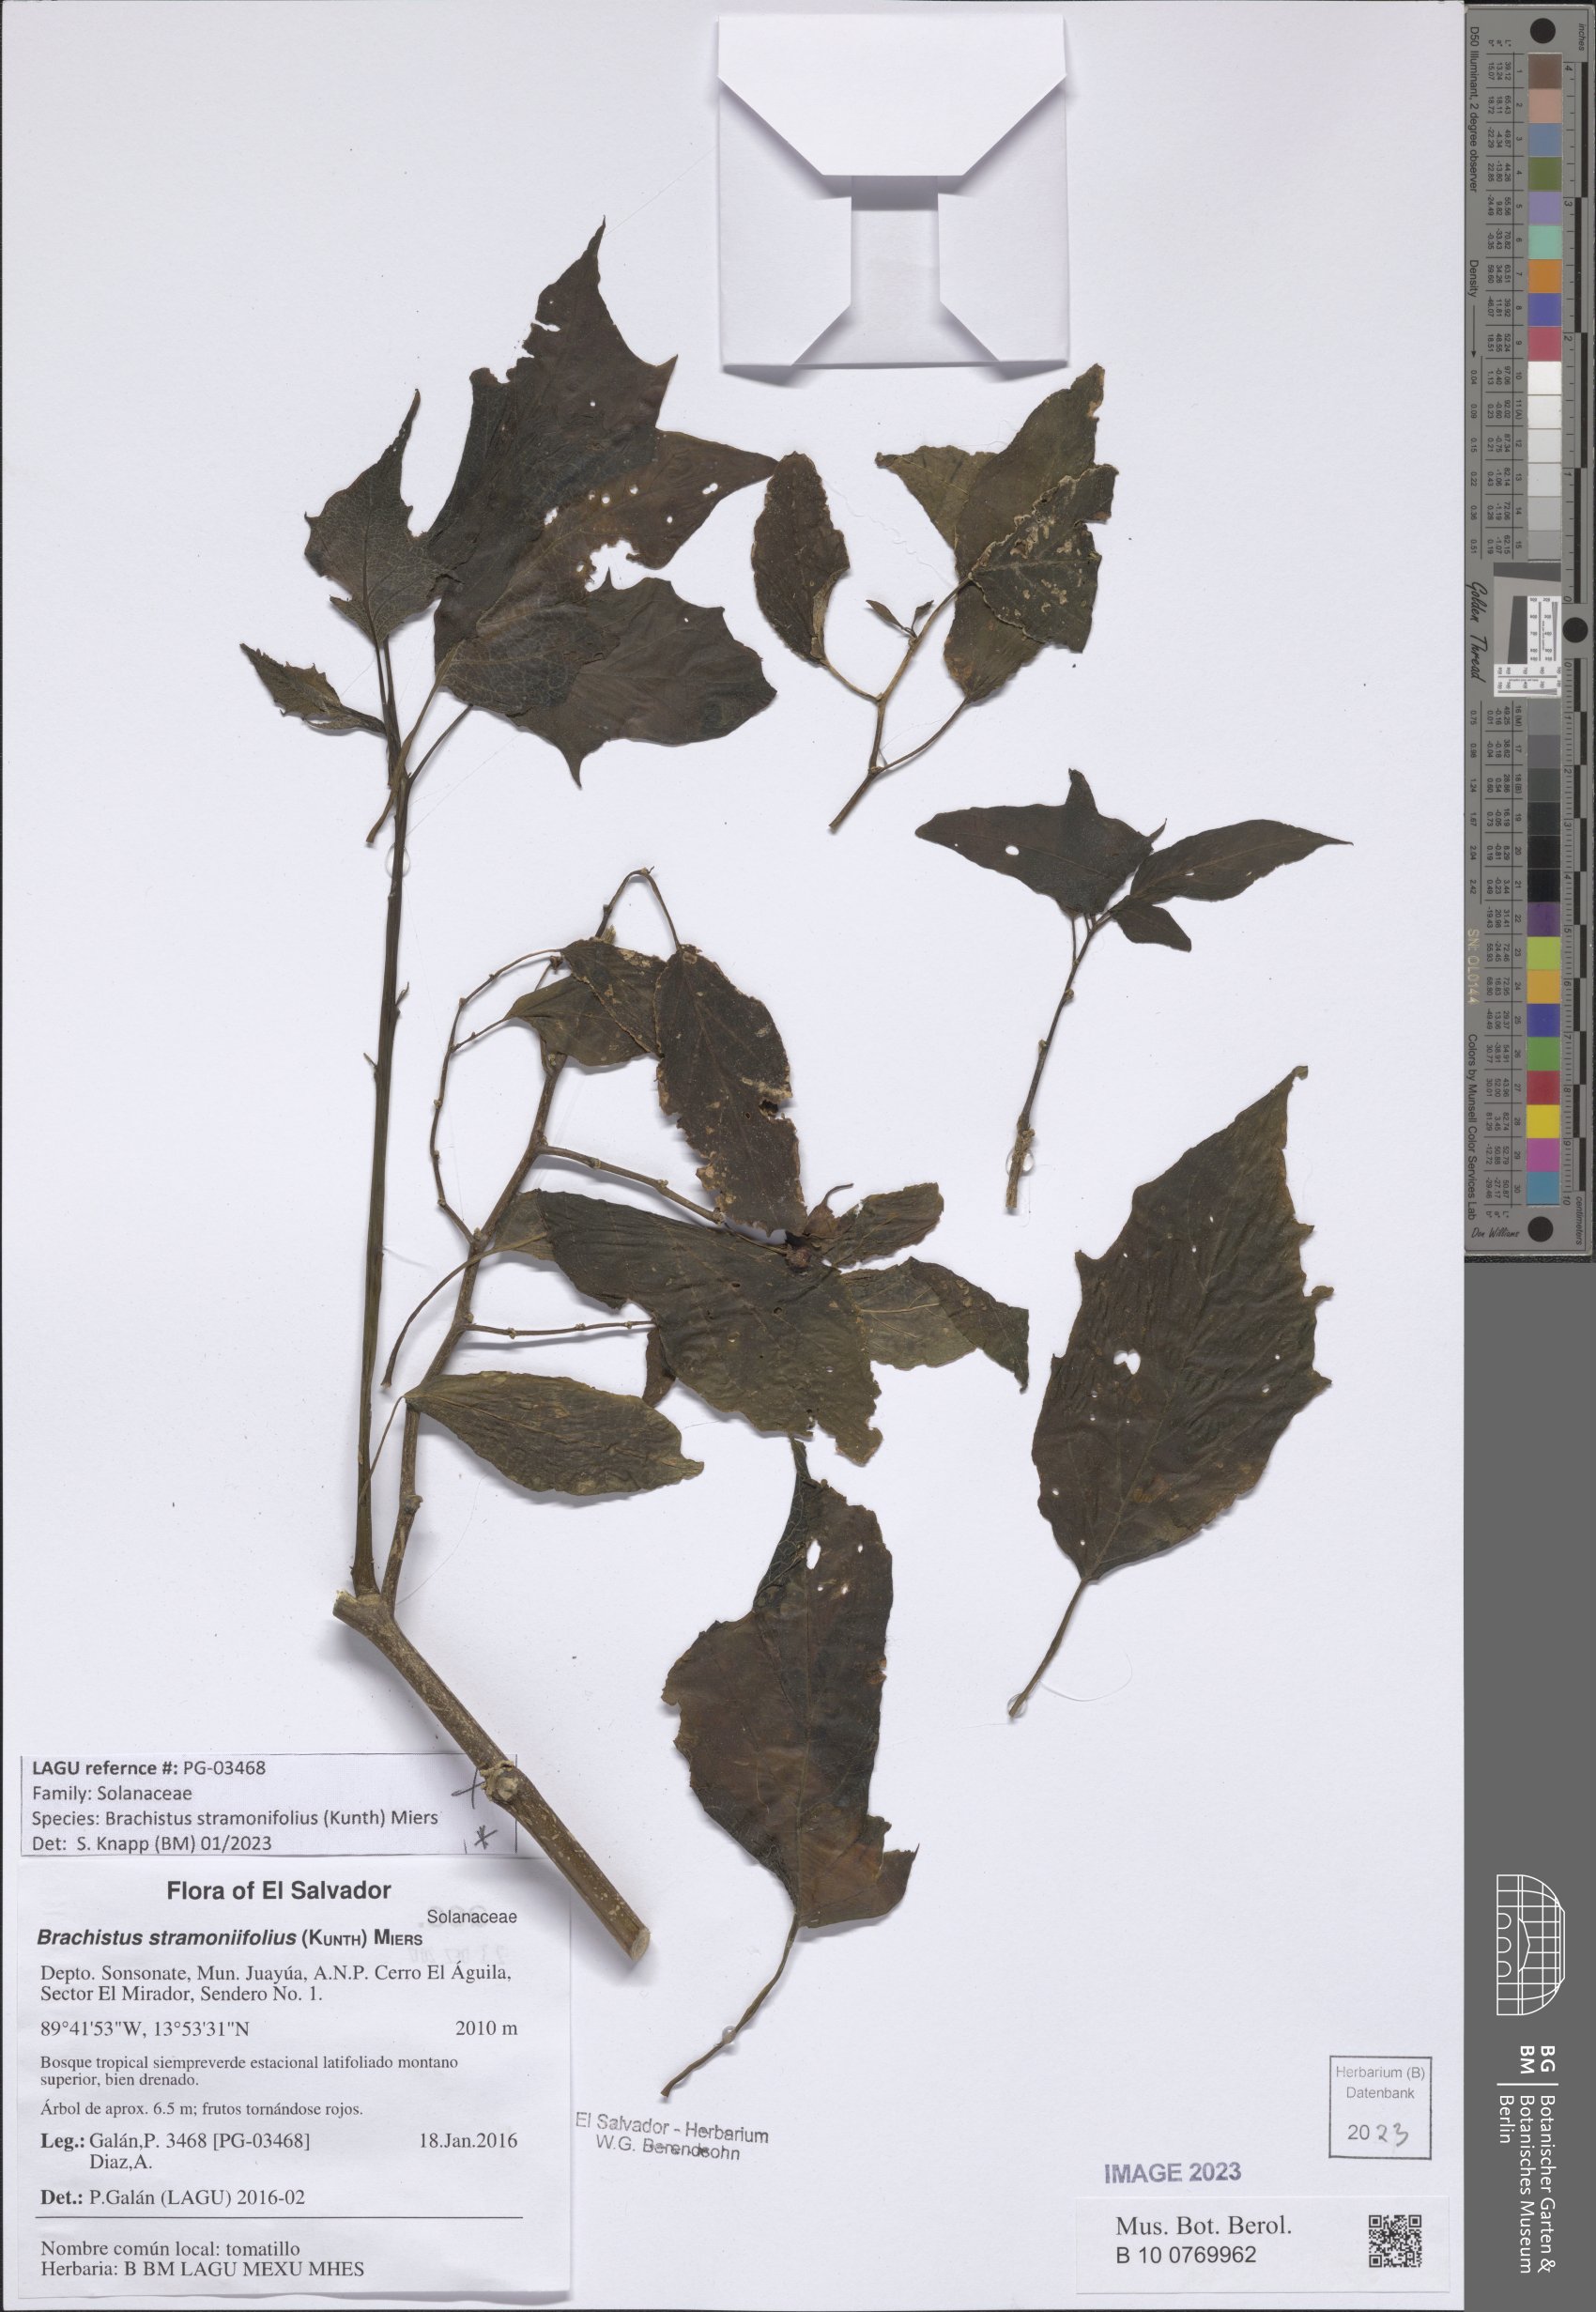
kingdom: Plantae
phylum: Tracheophyta
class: Magnoliopsida
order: Solanales
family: Solanaceae
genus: Brachistus
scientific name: Brachistus stramonifolius
